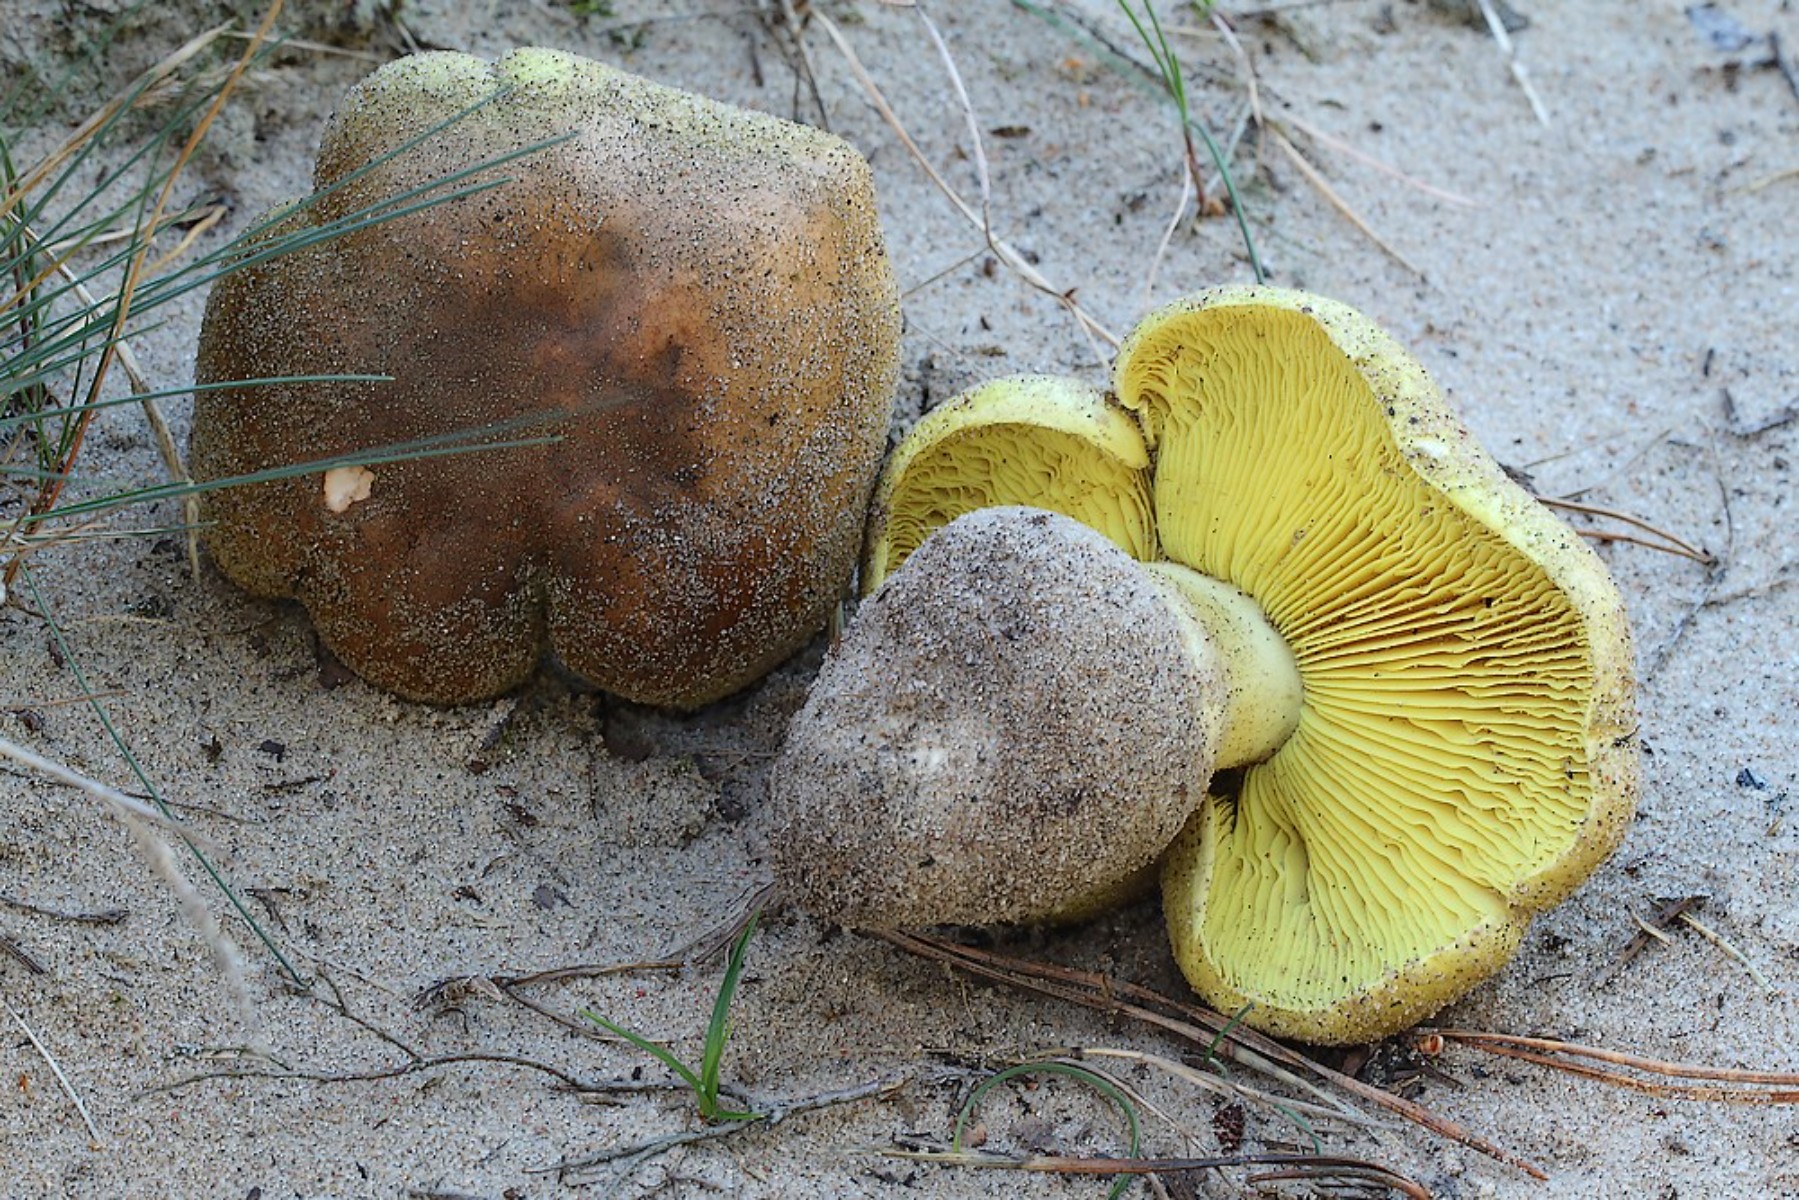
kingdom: Fungi
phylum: Basidiomycota
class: Agaricomycetes
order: Agaricales
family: Tricholomataceae
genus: Tricholoma
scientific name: Tricholoma equestre
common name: ægte ridderhat
